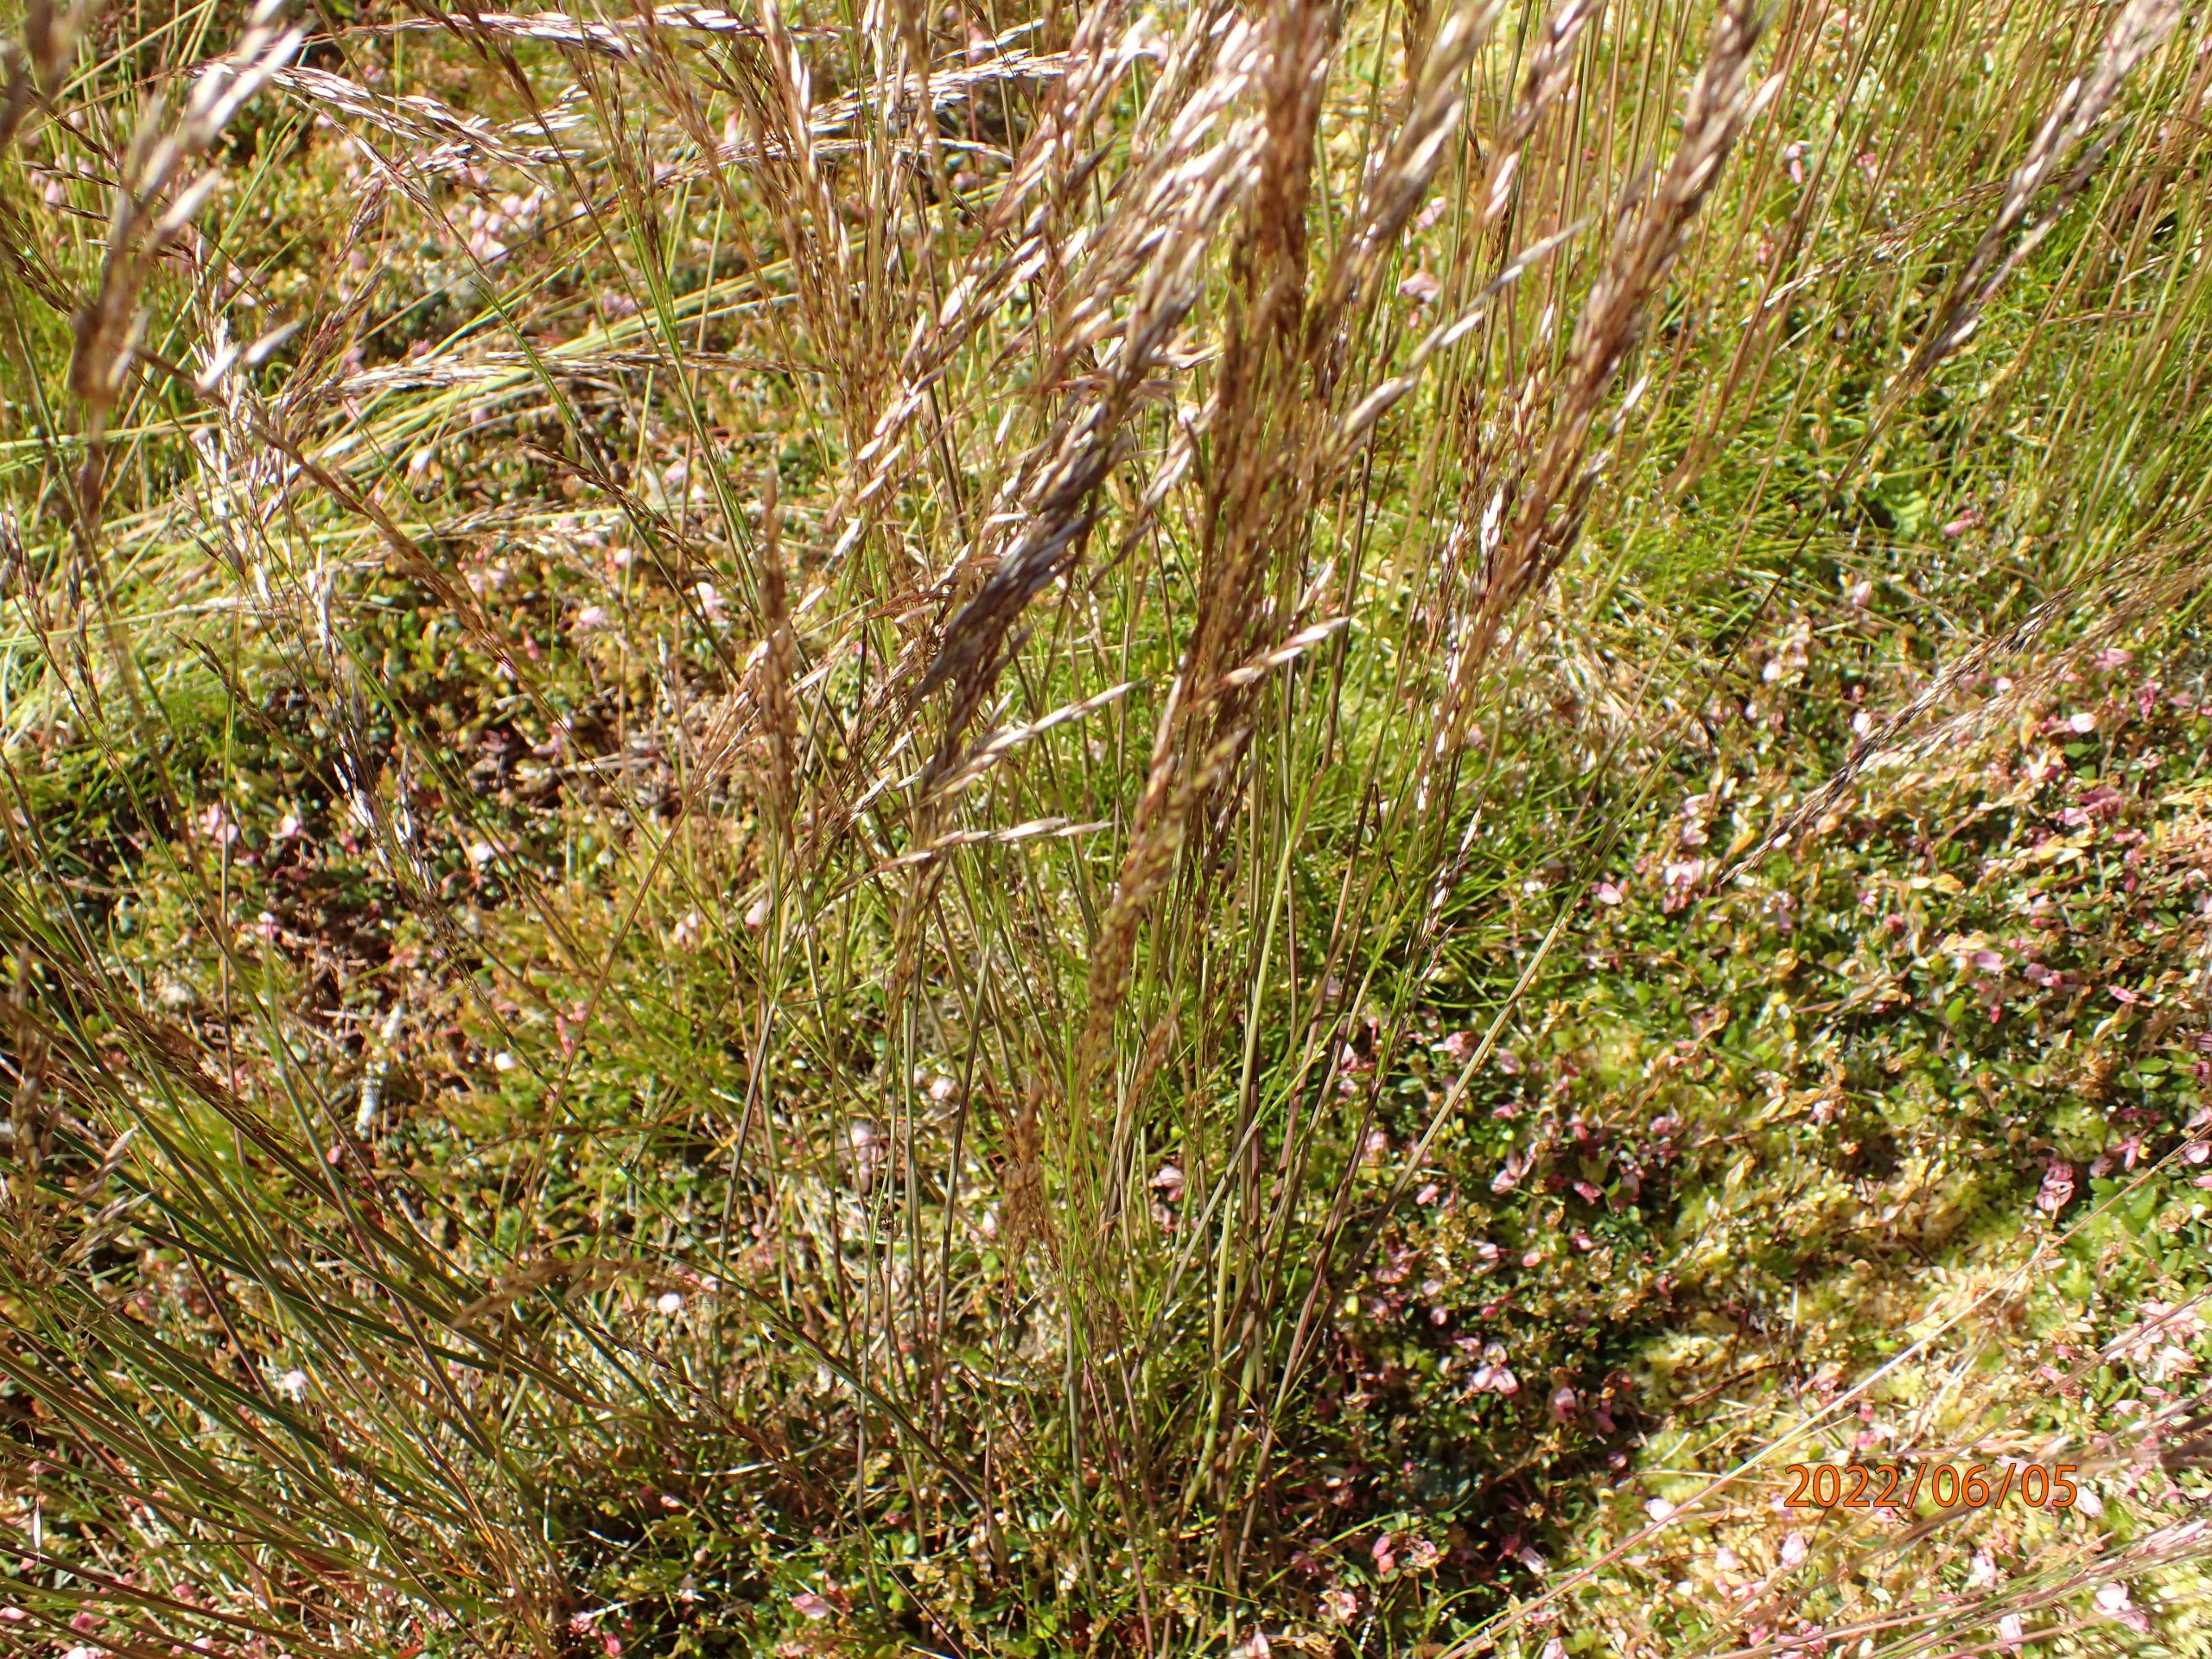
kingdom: Plantae
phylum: Tracheophyta
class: Liliopsida
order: Poales
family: Poaceae
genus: Avenella
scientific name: Avenella flexuosa
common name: Bølget bunke
